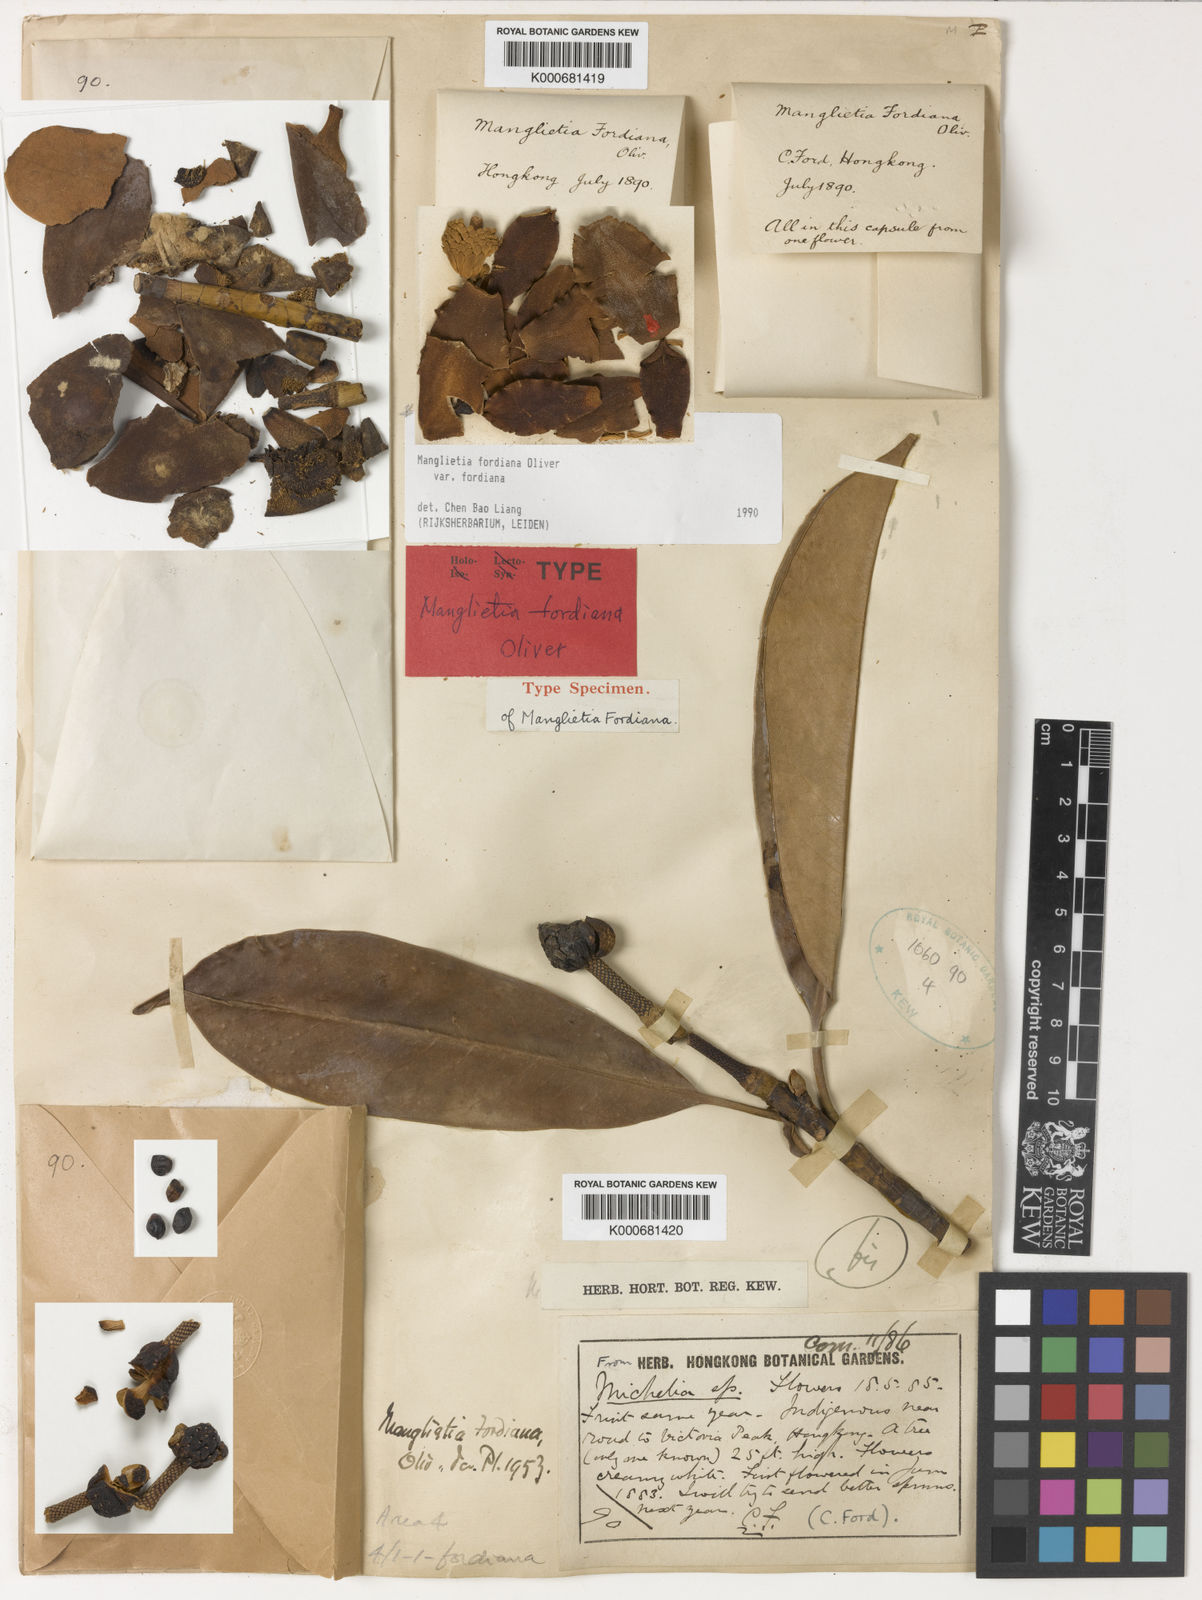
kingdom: Plantae
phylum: Tracheophyta
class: Magnoliopsida
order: Magnoliales
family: Magnoliaceae
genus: Magnolia
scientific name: Magnolia fordiana
